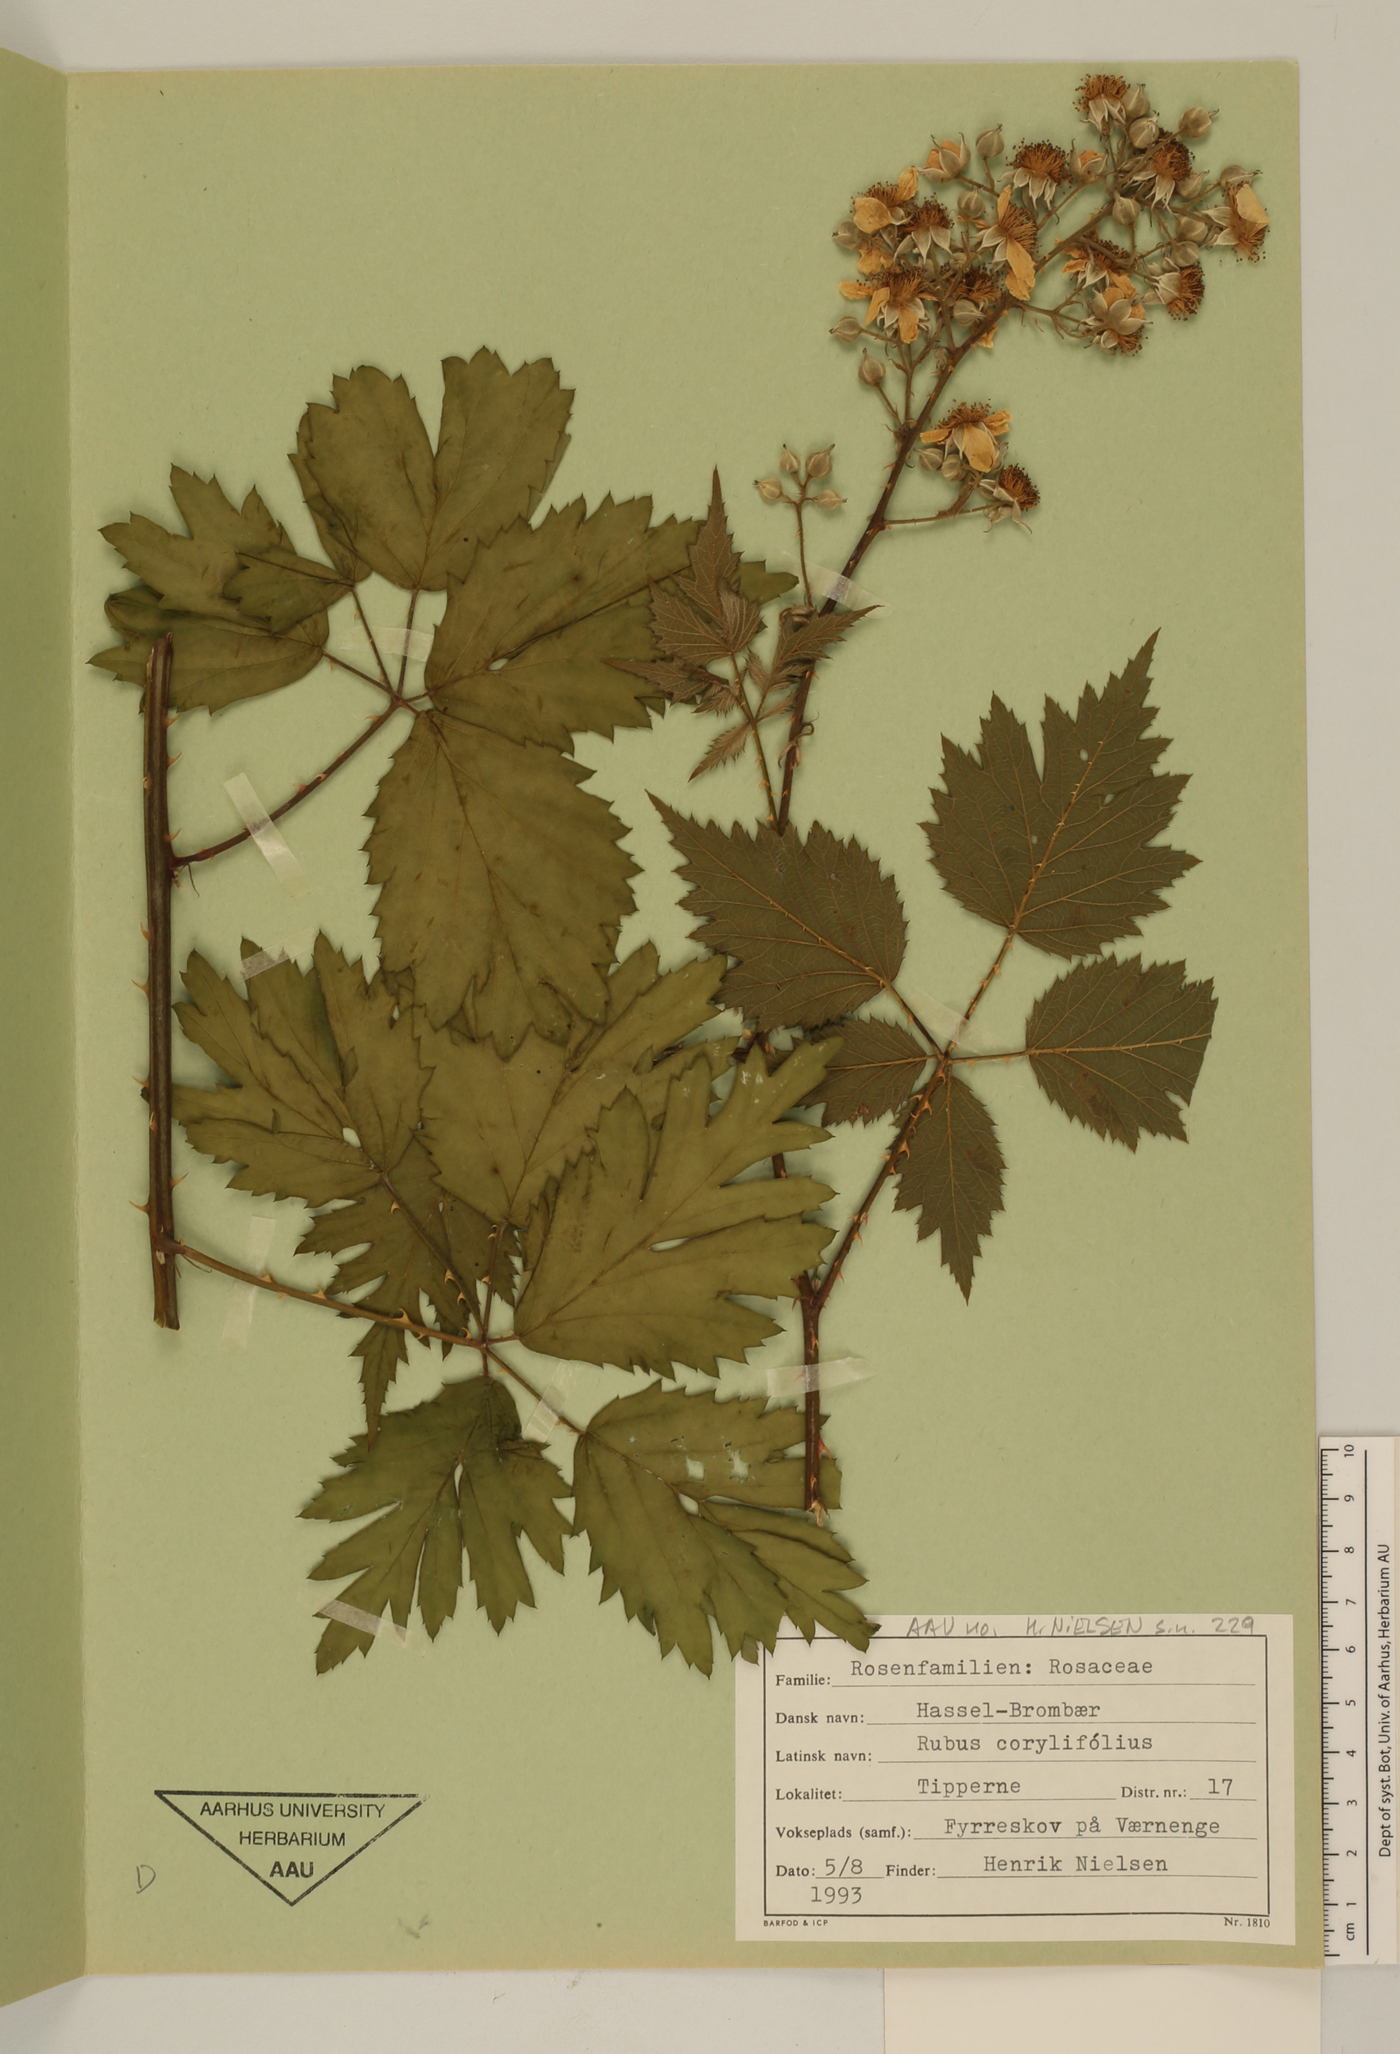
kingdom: Plantae
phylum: Tracheophyta
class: Magnoliopsida
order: Rosales
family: Rosaceae
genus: Rubus
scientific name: Rubus
